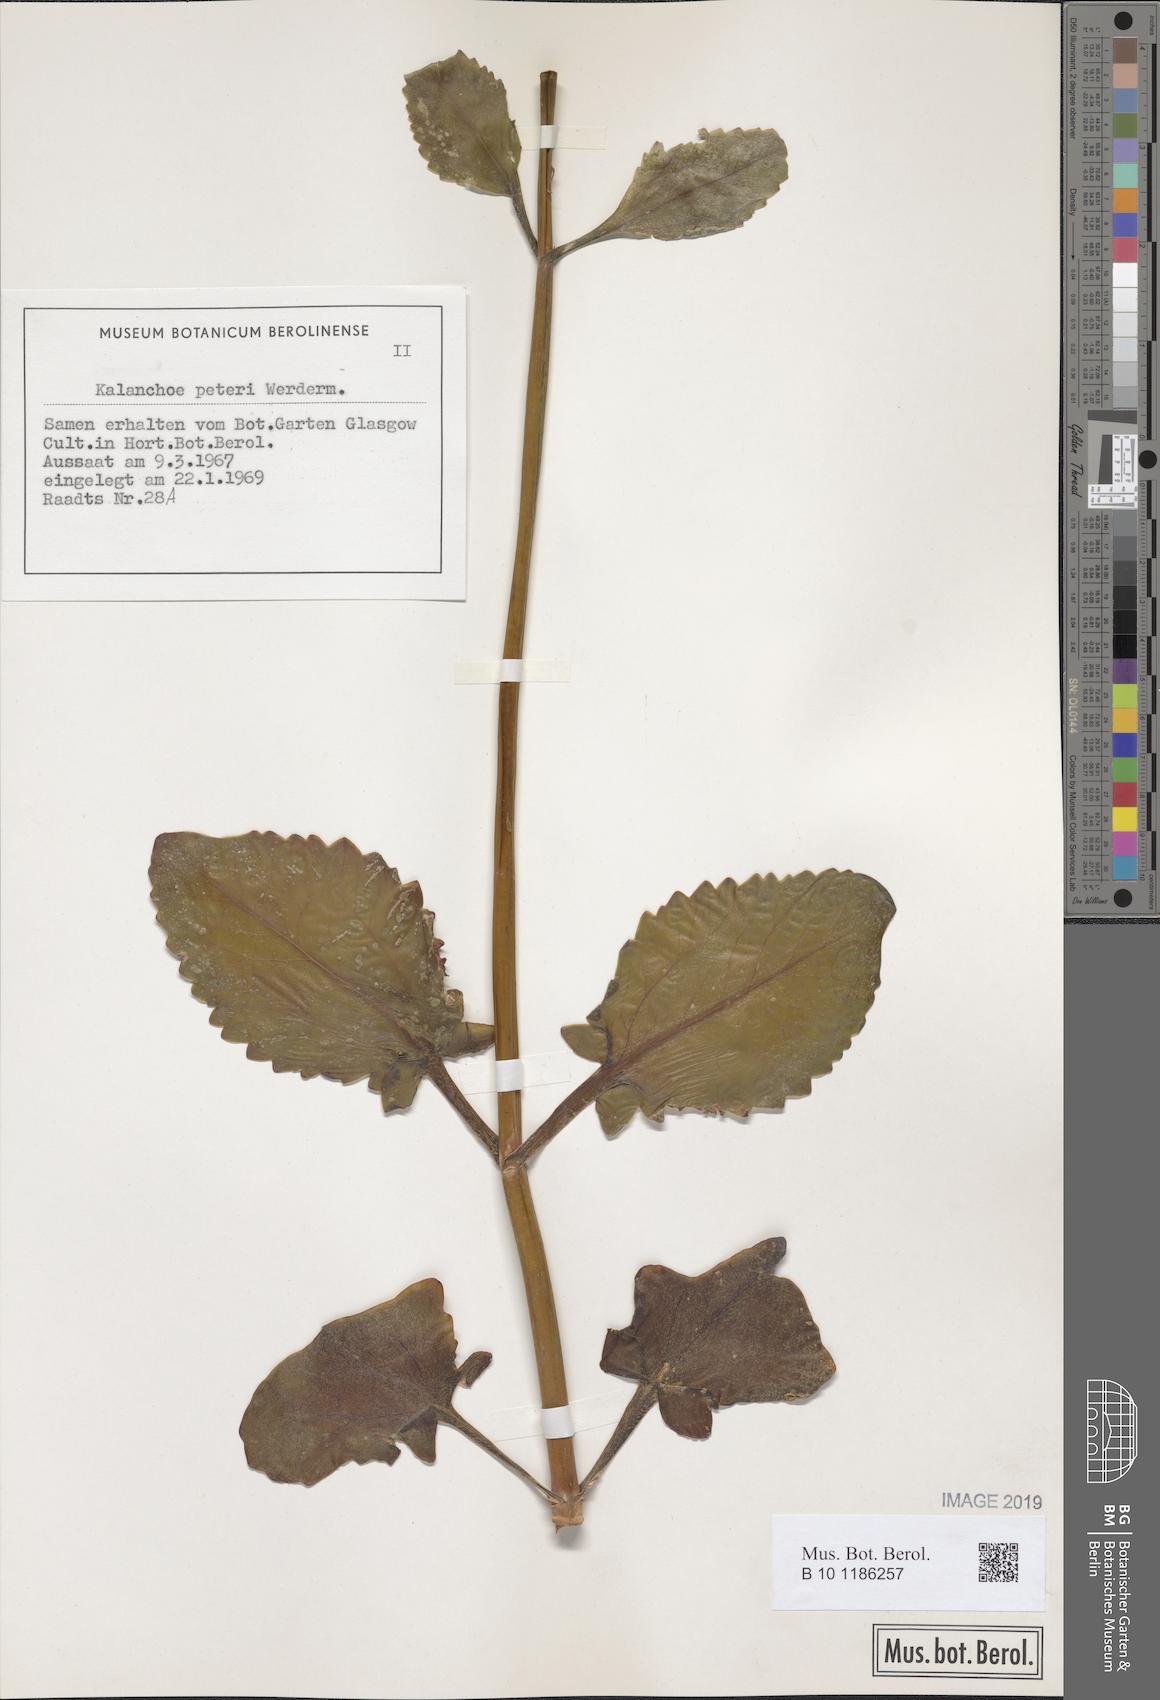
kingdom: Plantae
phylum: Tracheophyta
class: Magnoliopsida
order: Saxifragales
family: Crassulaceae
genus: Kalanchoe
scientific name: Kalanchoe peteri
